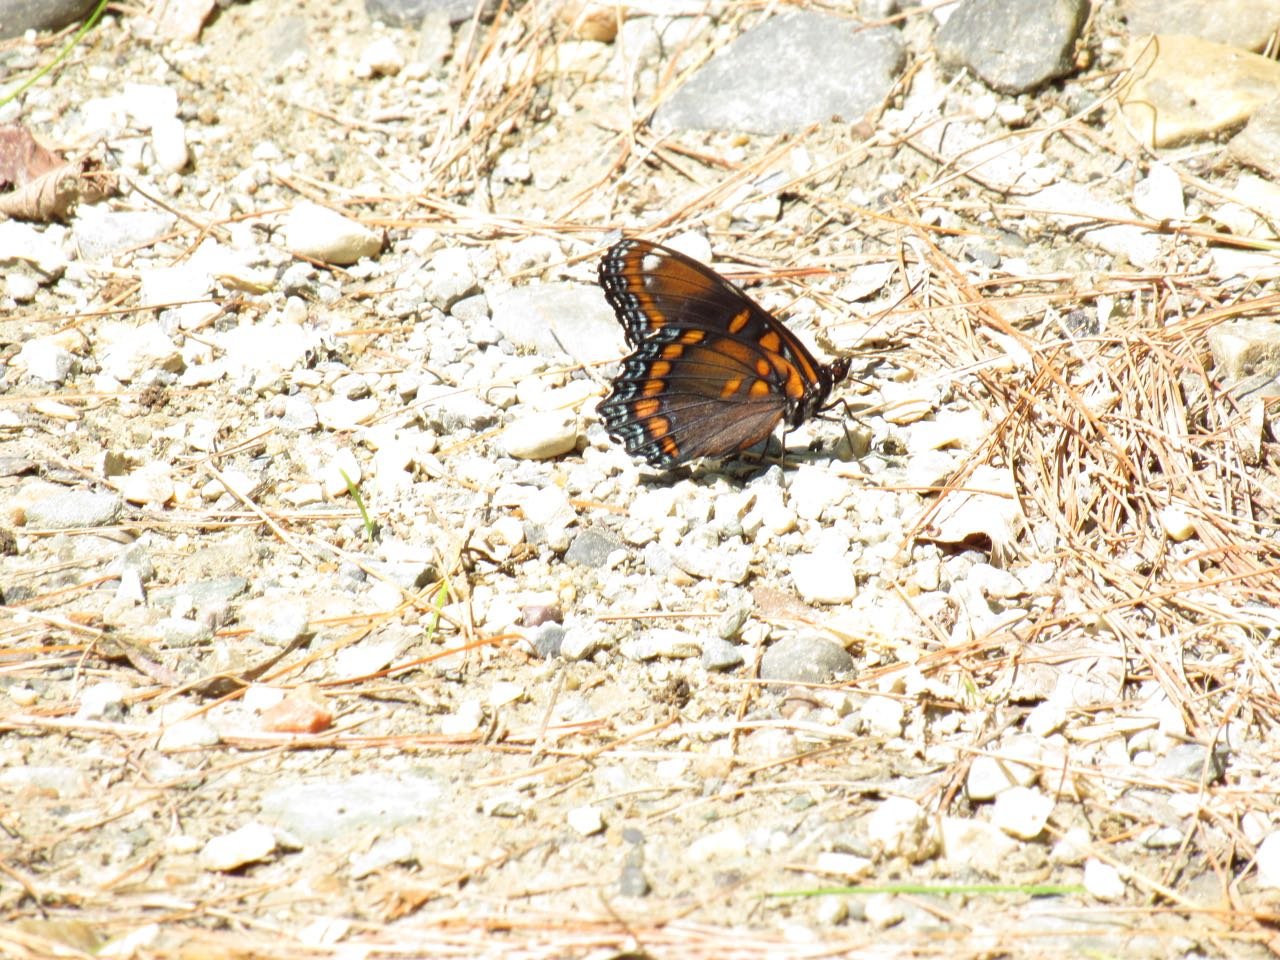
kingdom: Animalia
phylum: Arthropoda
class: Insecta
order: Lepidoptera
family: Nymphalidae
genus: Limenitis
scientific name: Limenitis
